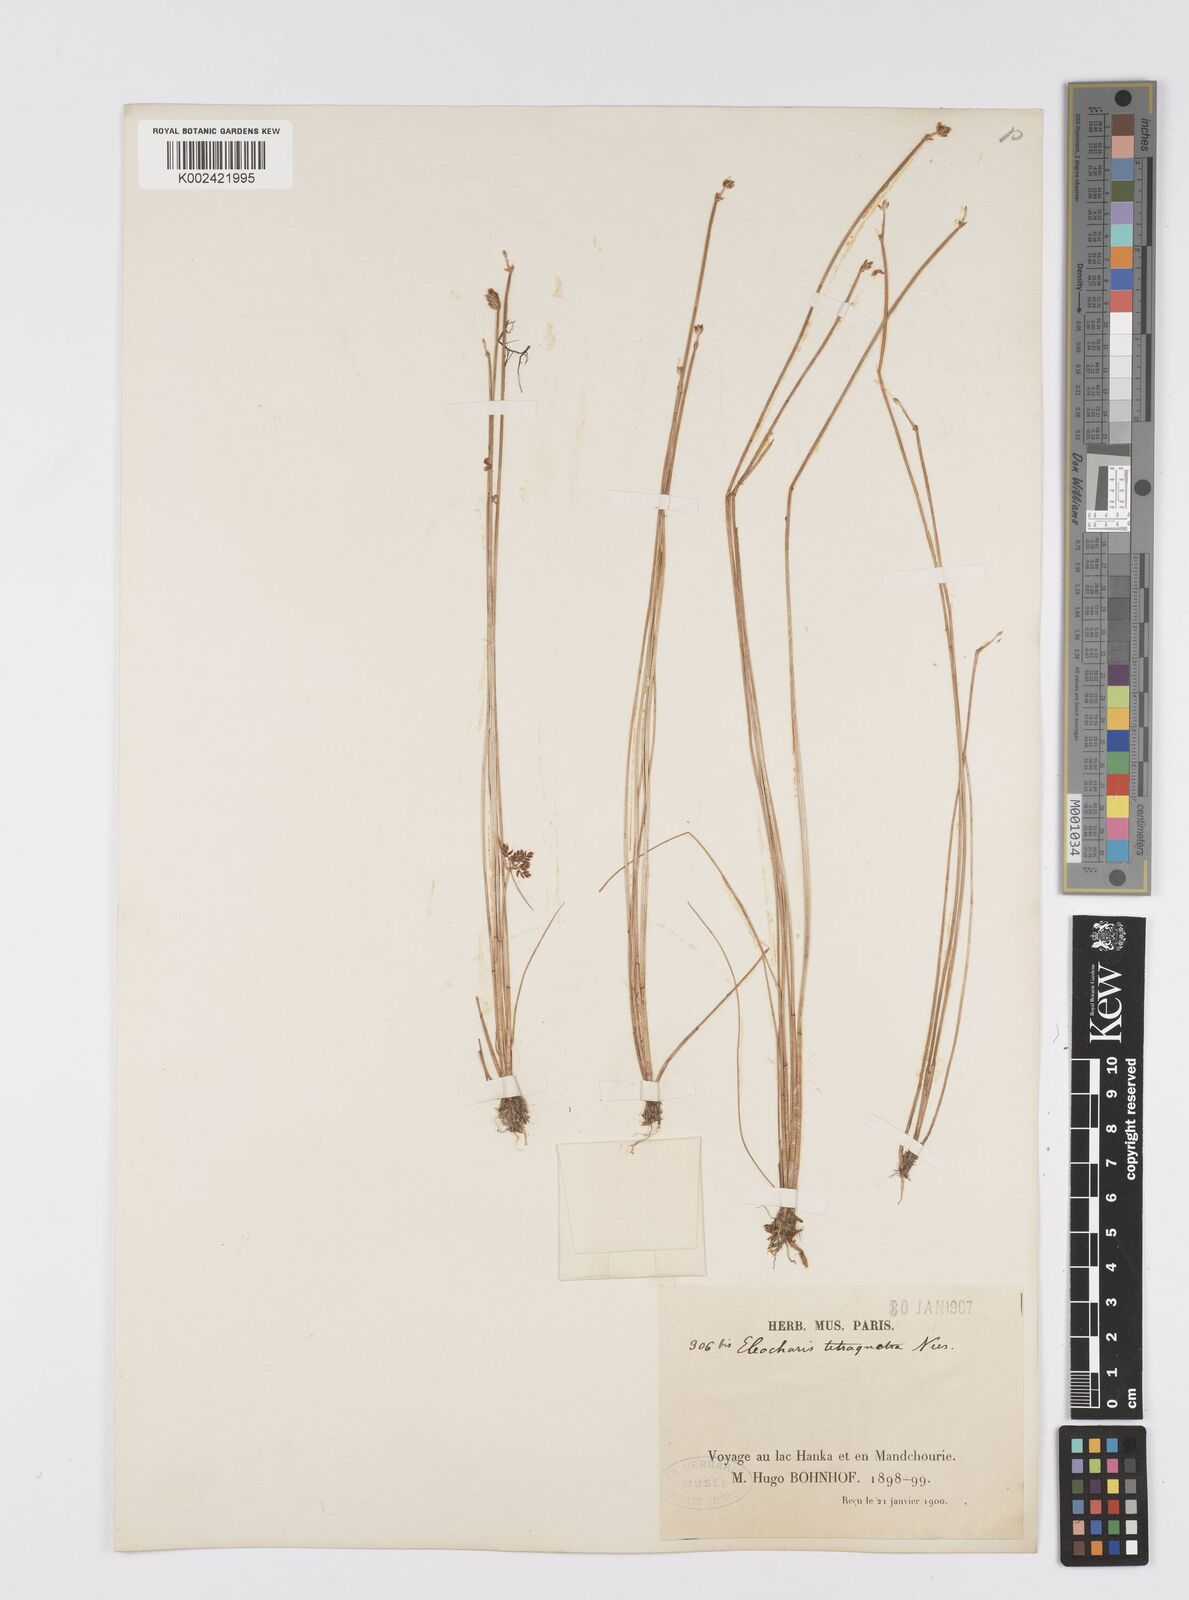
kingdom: Plantae
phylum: Tracheophyta
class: Liliopsida
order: Poales
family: Cyperaceae
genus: Eleocharis
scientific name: Eleocharis tetraquetra
